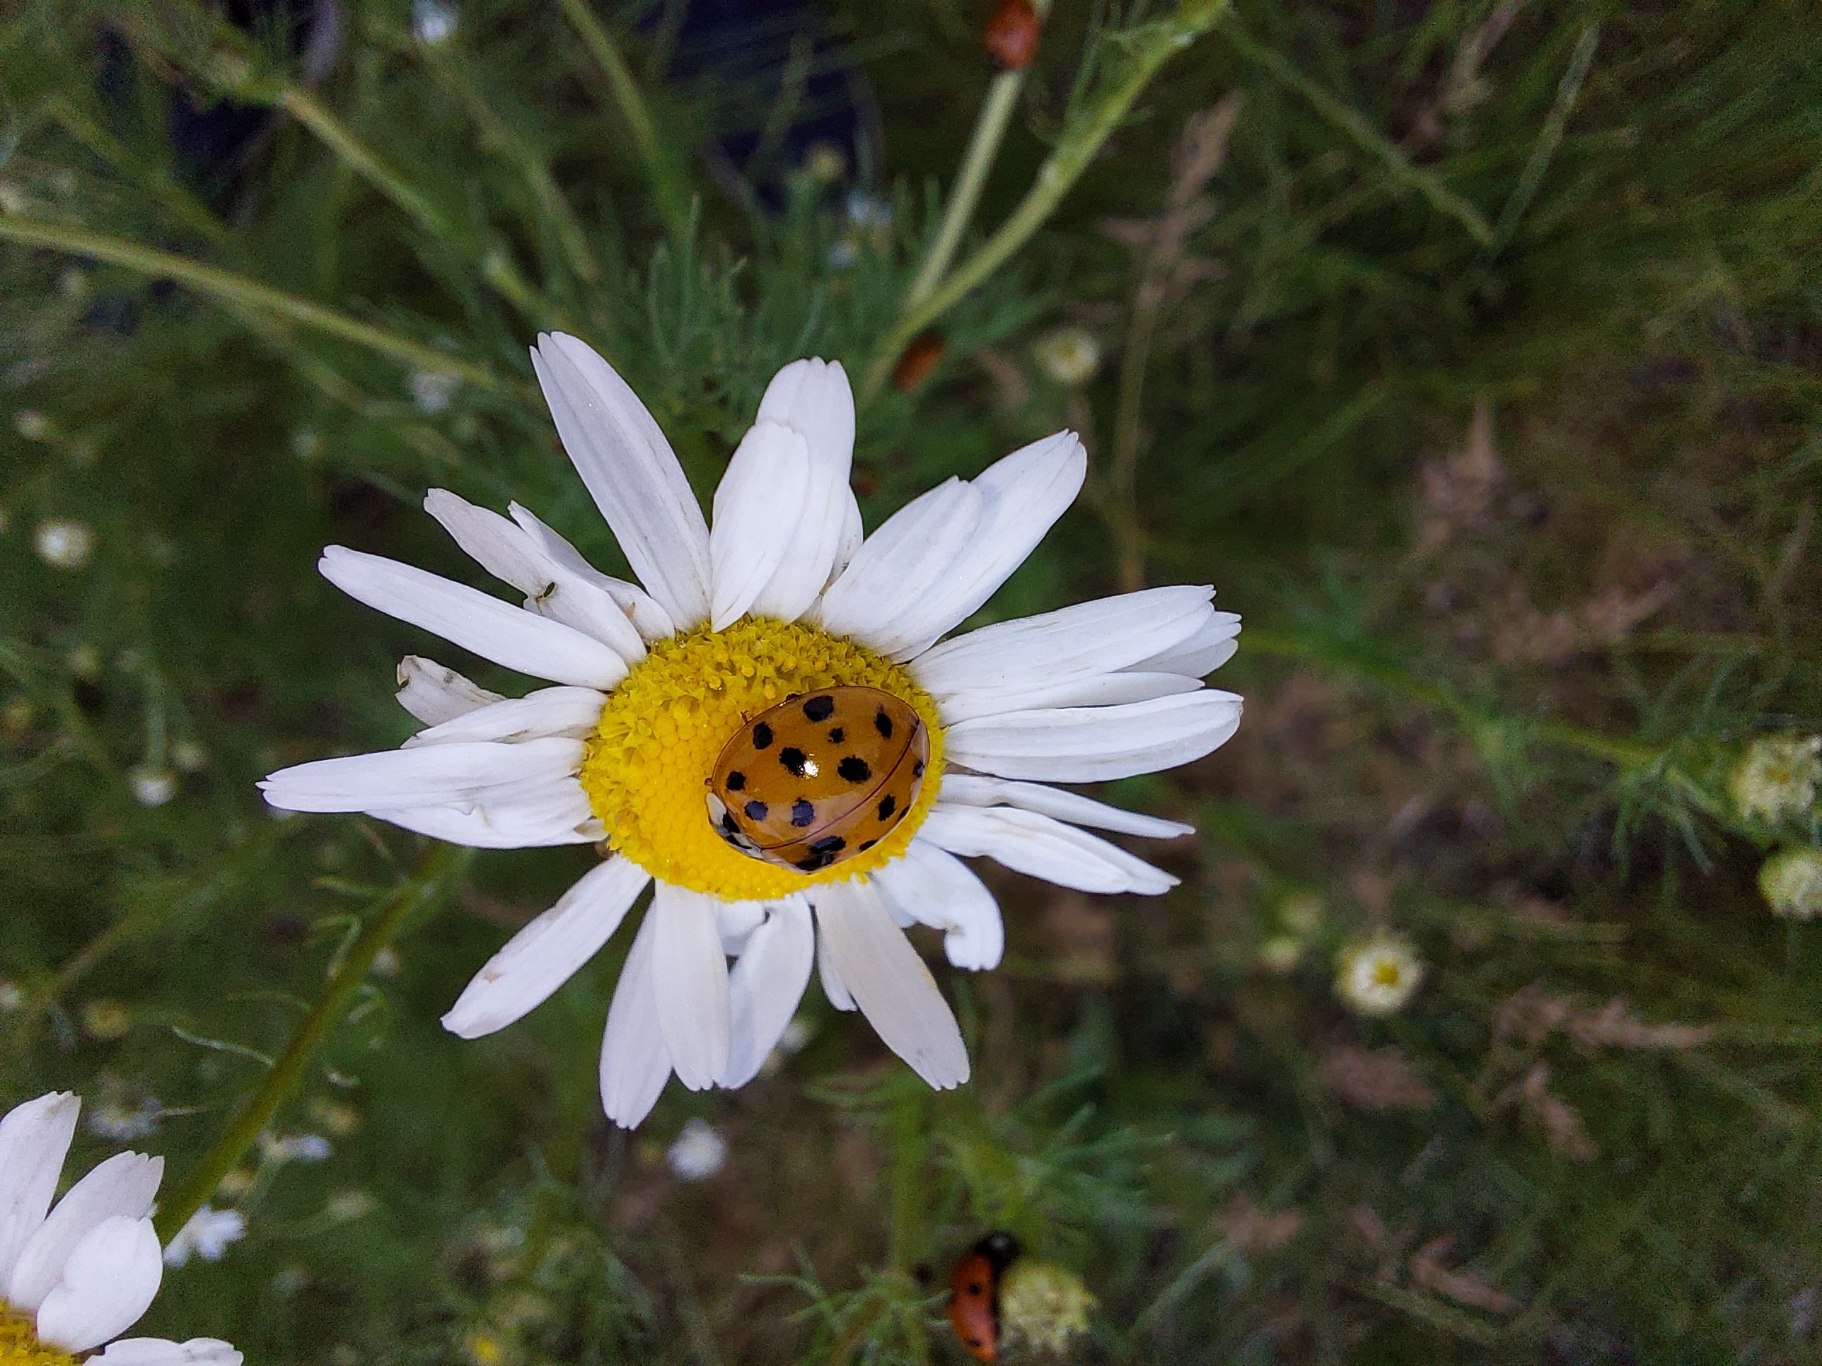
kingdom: Animalia
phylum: Arthropoda
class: Insecta
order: Coleoptera
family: Coccinellidae
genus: Harmonia
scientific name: Harmonia axyridis
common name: Harlekinmariehøne
